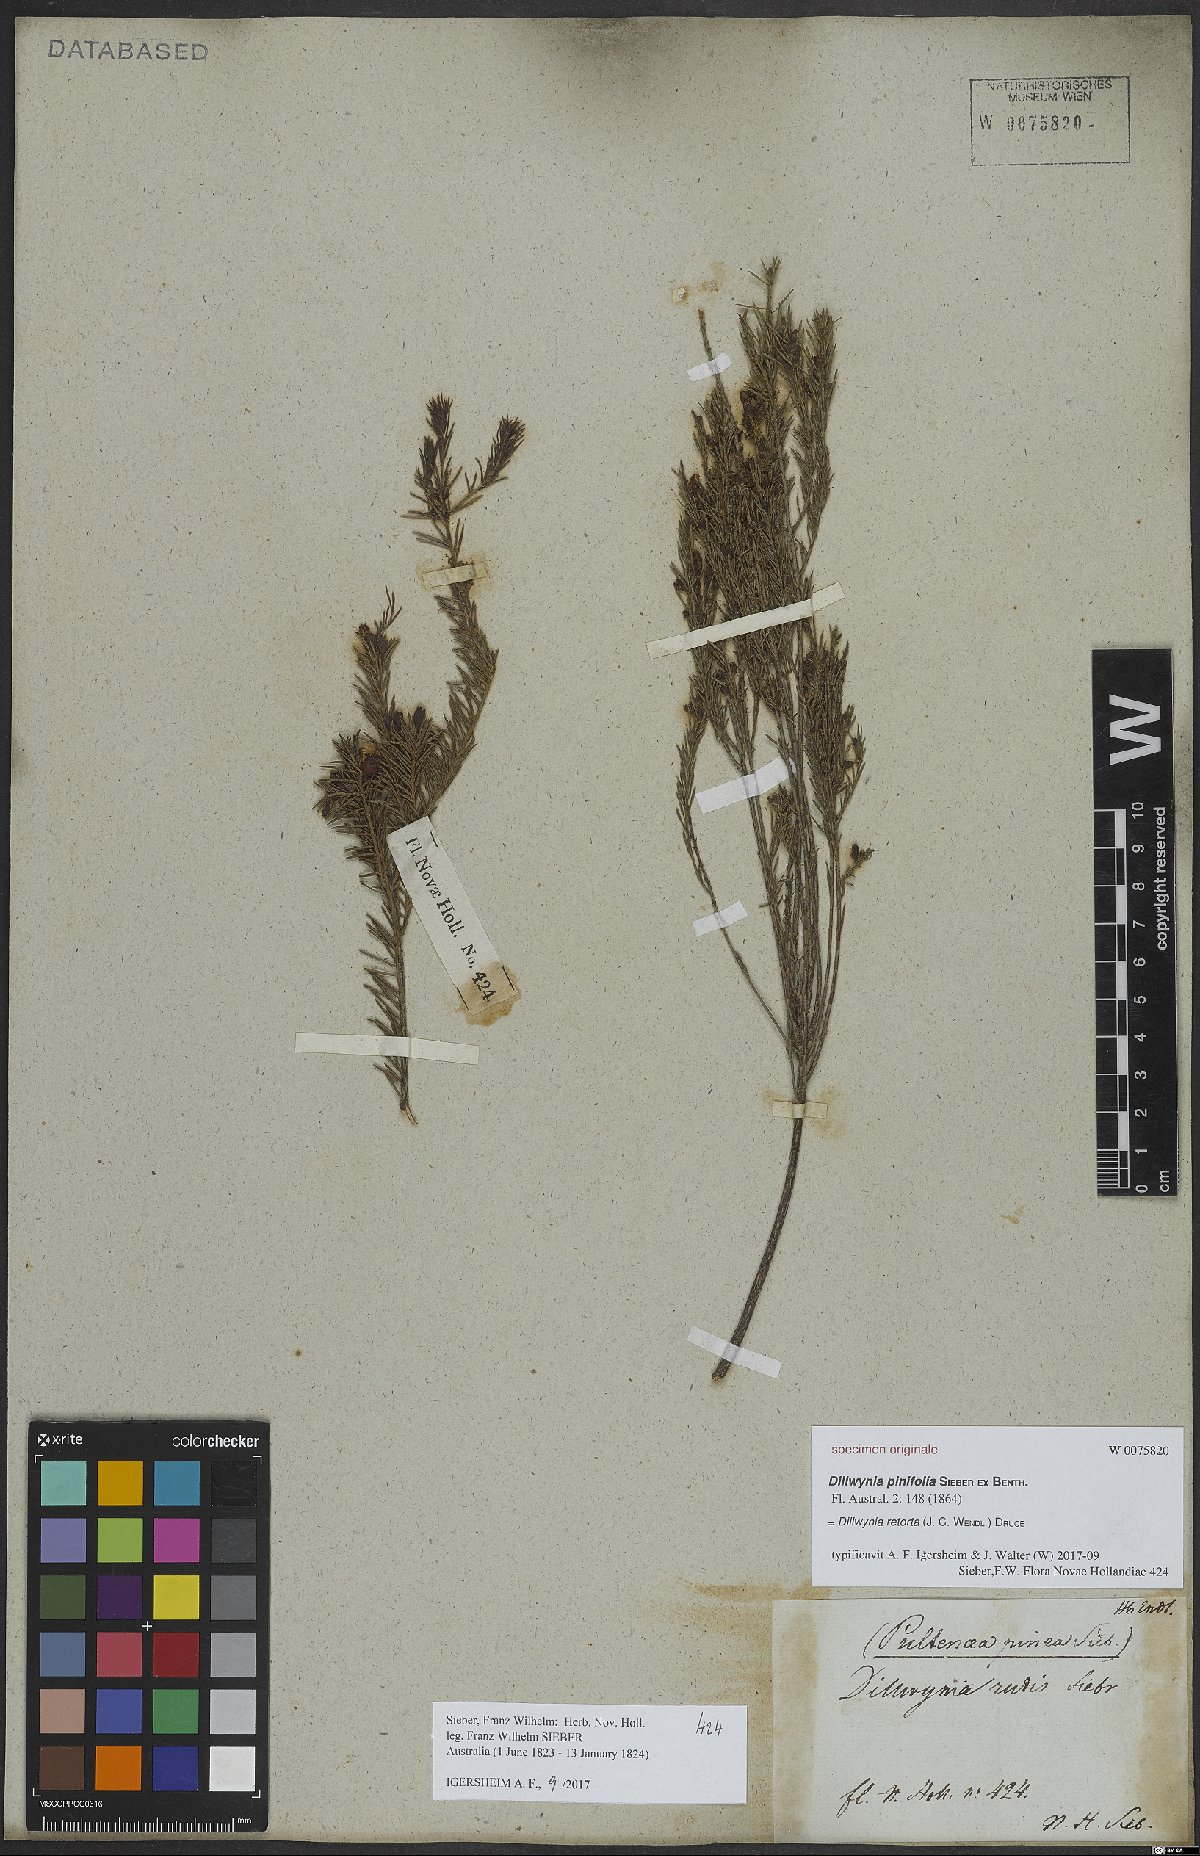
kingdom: Plantae
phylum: Tracheophyta
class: Magnoliopsida
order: Fabales
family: Fabaceae
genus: Dillwynia
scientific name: Dillwynia retorta
